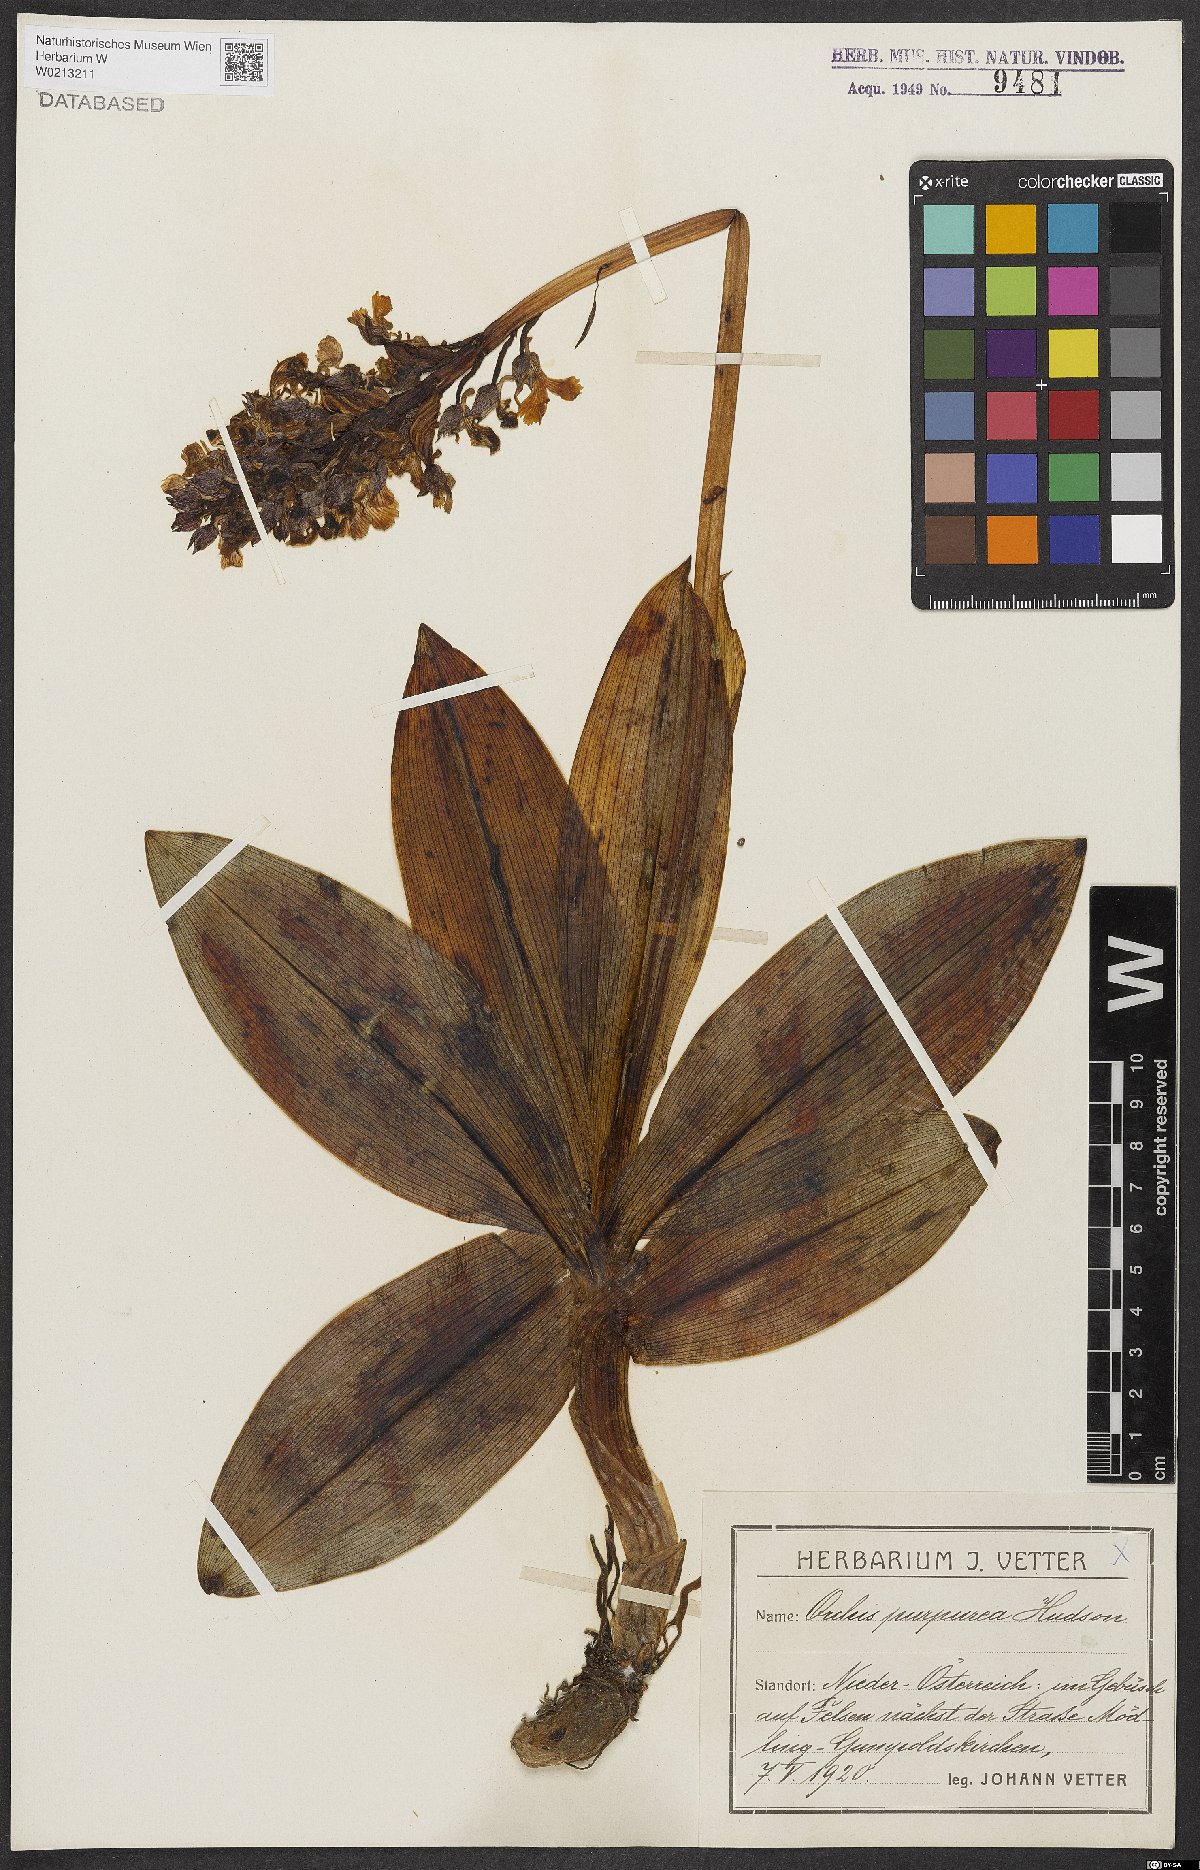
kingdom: Plantae
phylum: Tracheophyta
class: Liliopsida
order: Asparagales
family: Orchidaceae
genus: Orchis
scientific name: Orchis purpurea
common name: Lady orchid
